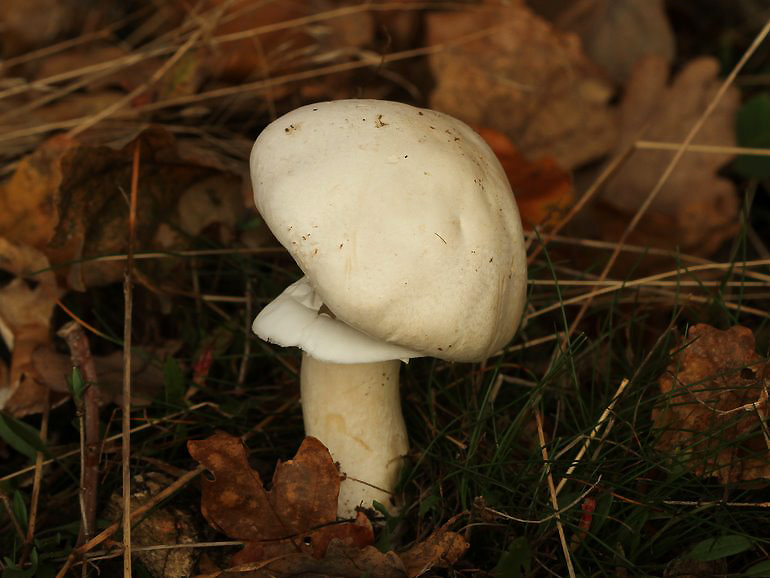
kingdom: Fungi
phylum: Basidiomycota
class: Agaricomycetes
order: Agaricales
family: Agaricaceae
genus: Agaricus
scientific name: Agaricus sylvicola
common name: gulhvid champignon
